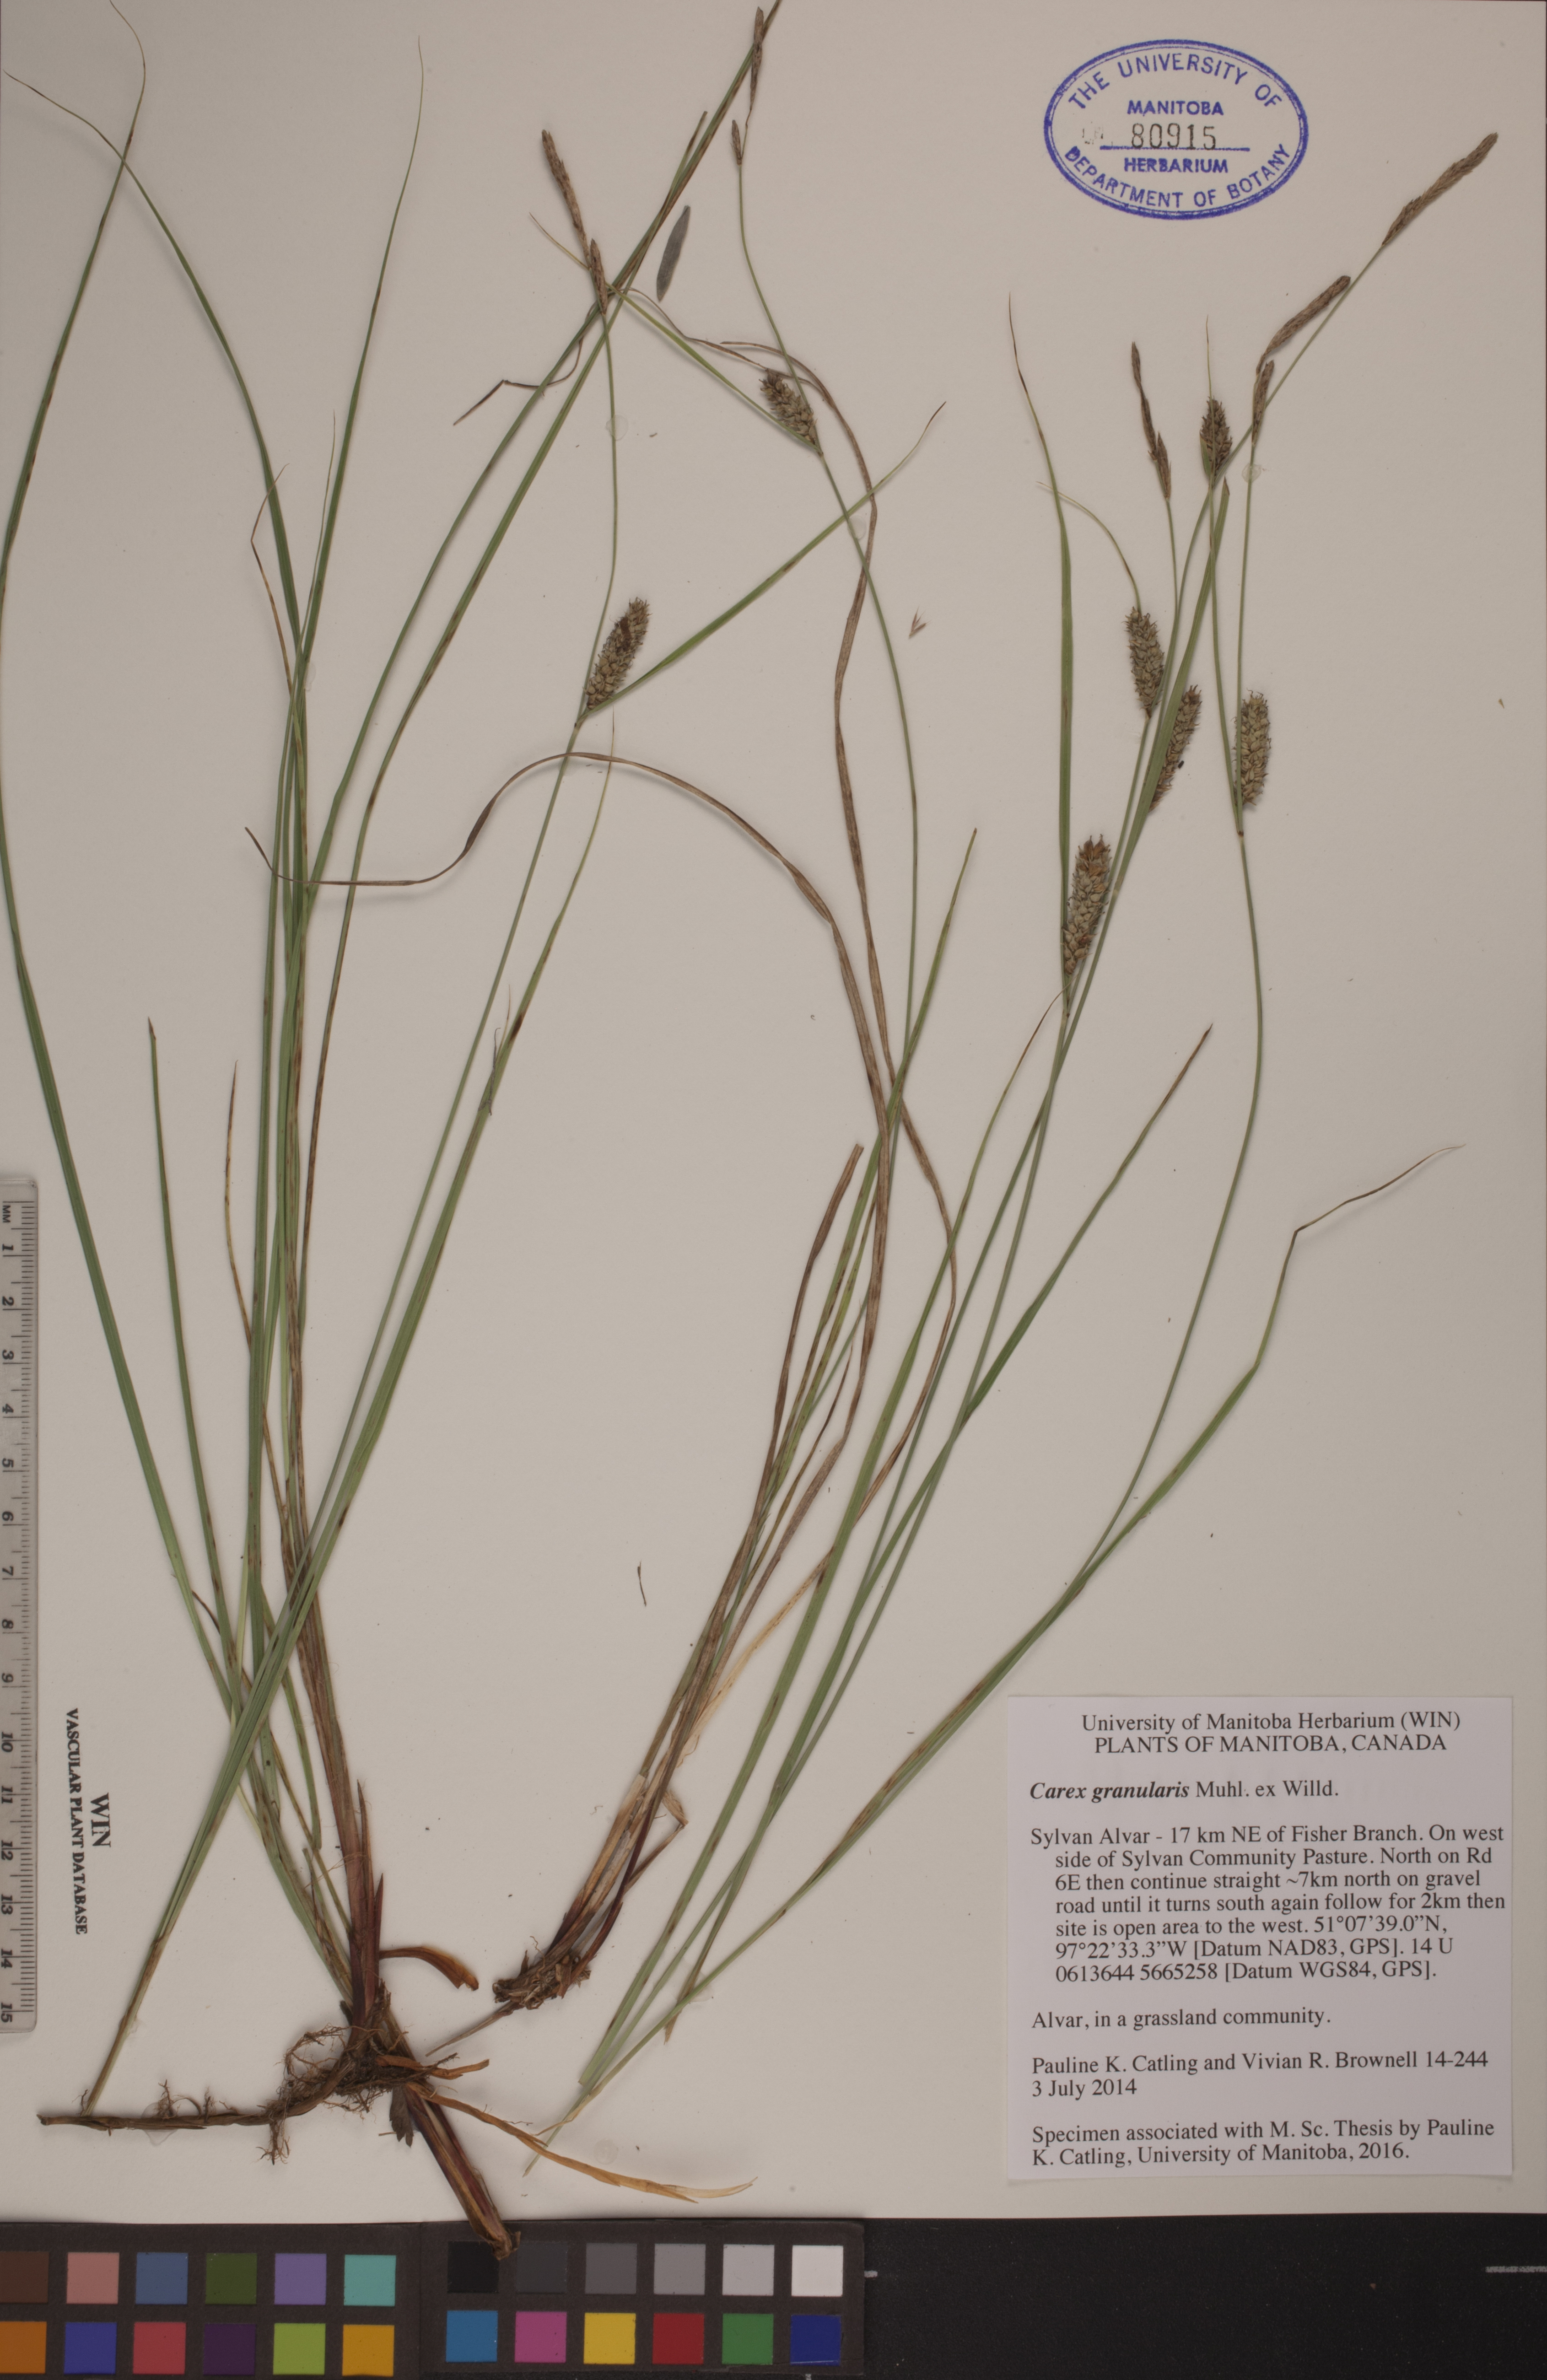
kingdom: Plantae
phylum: Tracheophyta
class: Liliopsida
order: Poales
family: Cyperaceae
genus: Carex
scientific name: Carex granularis
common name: Granular sedge
